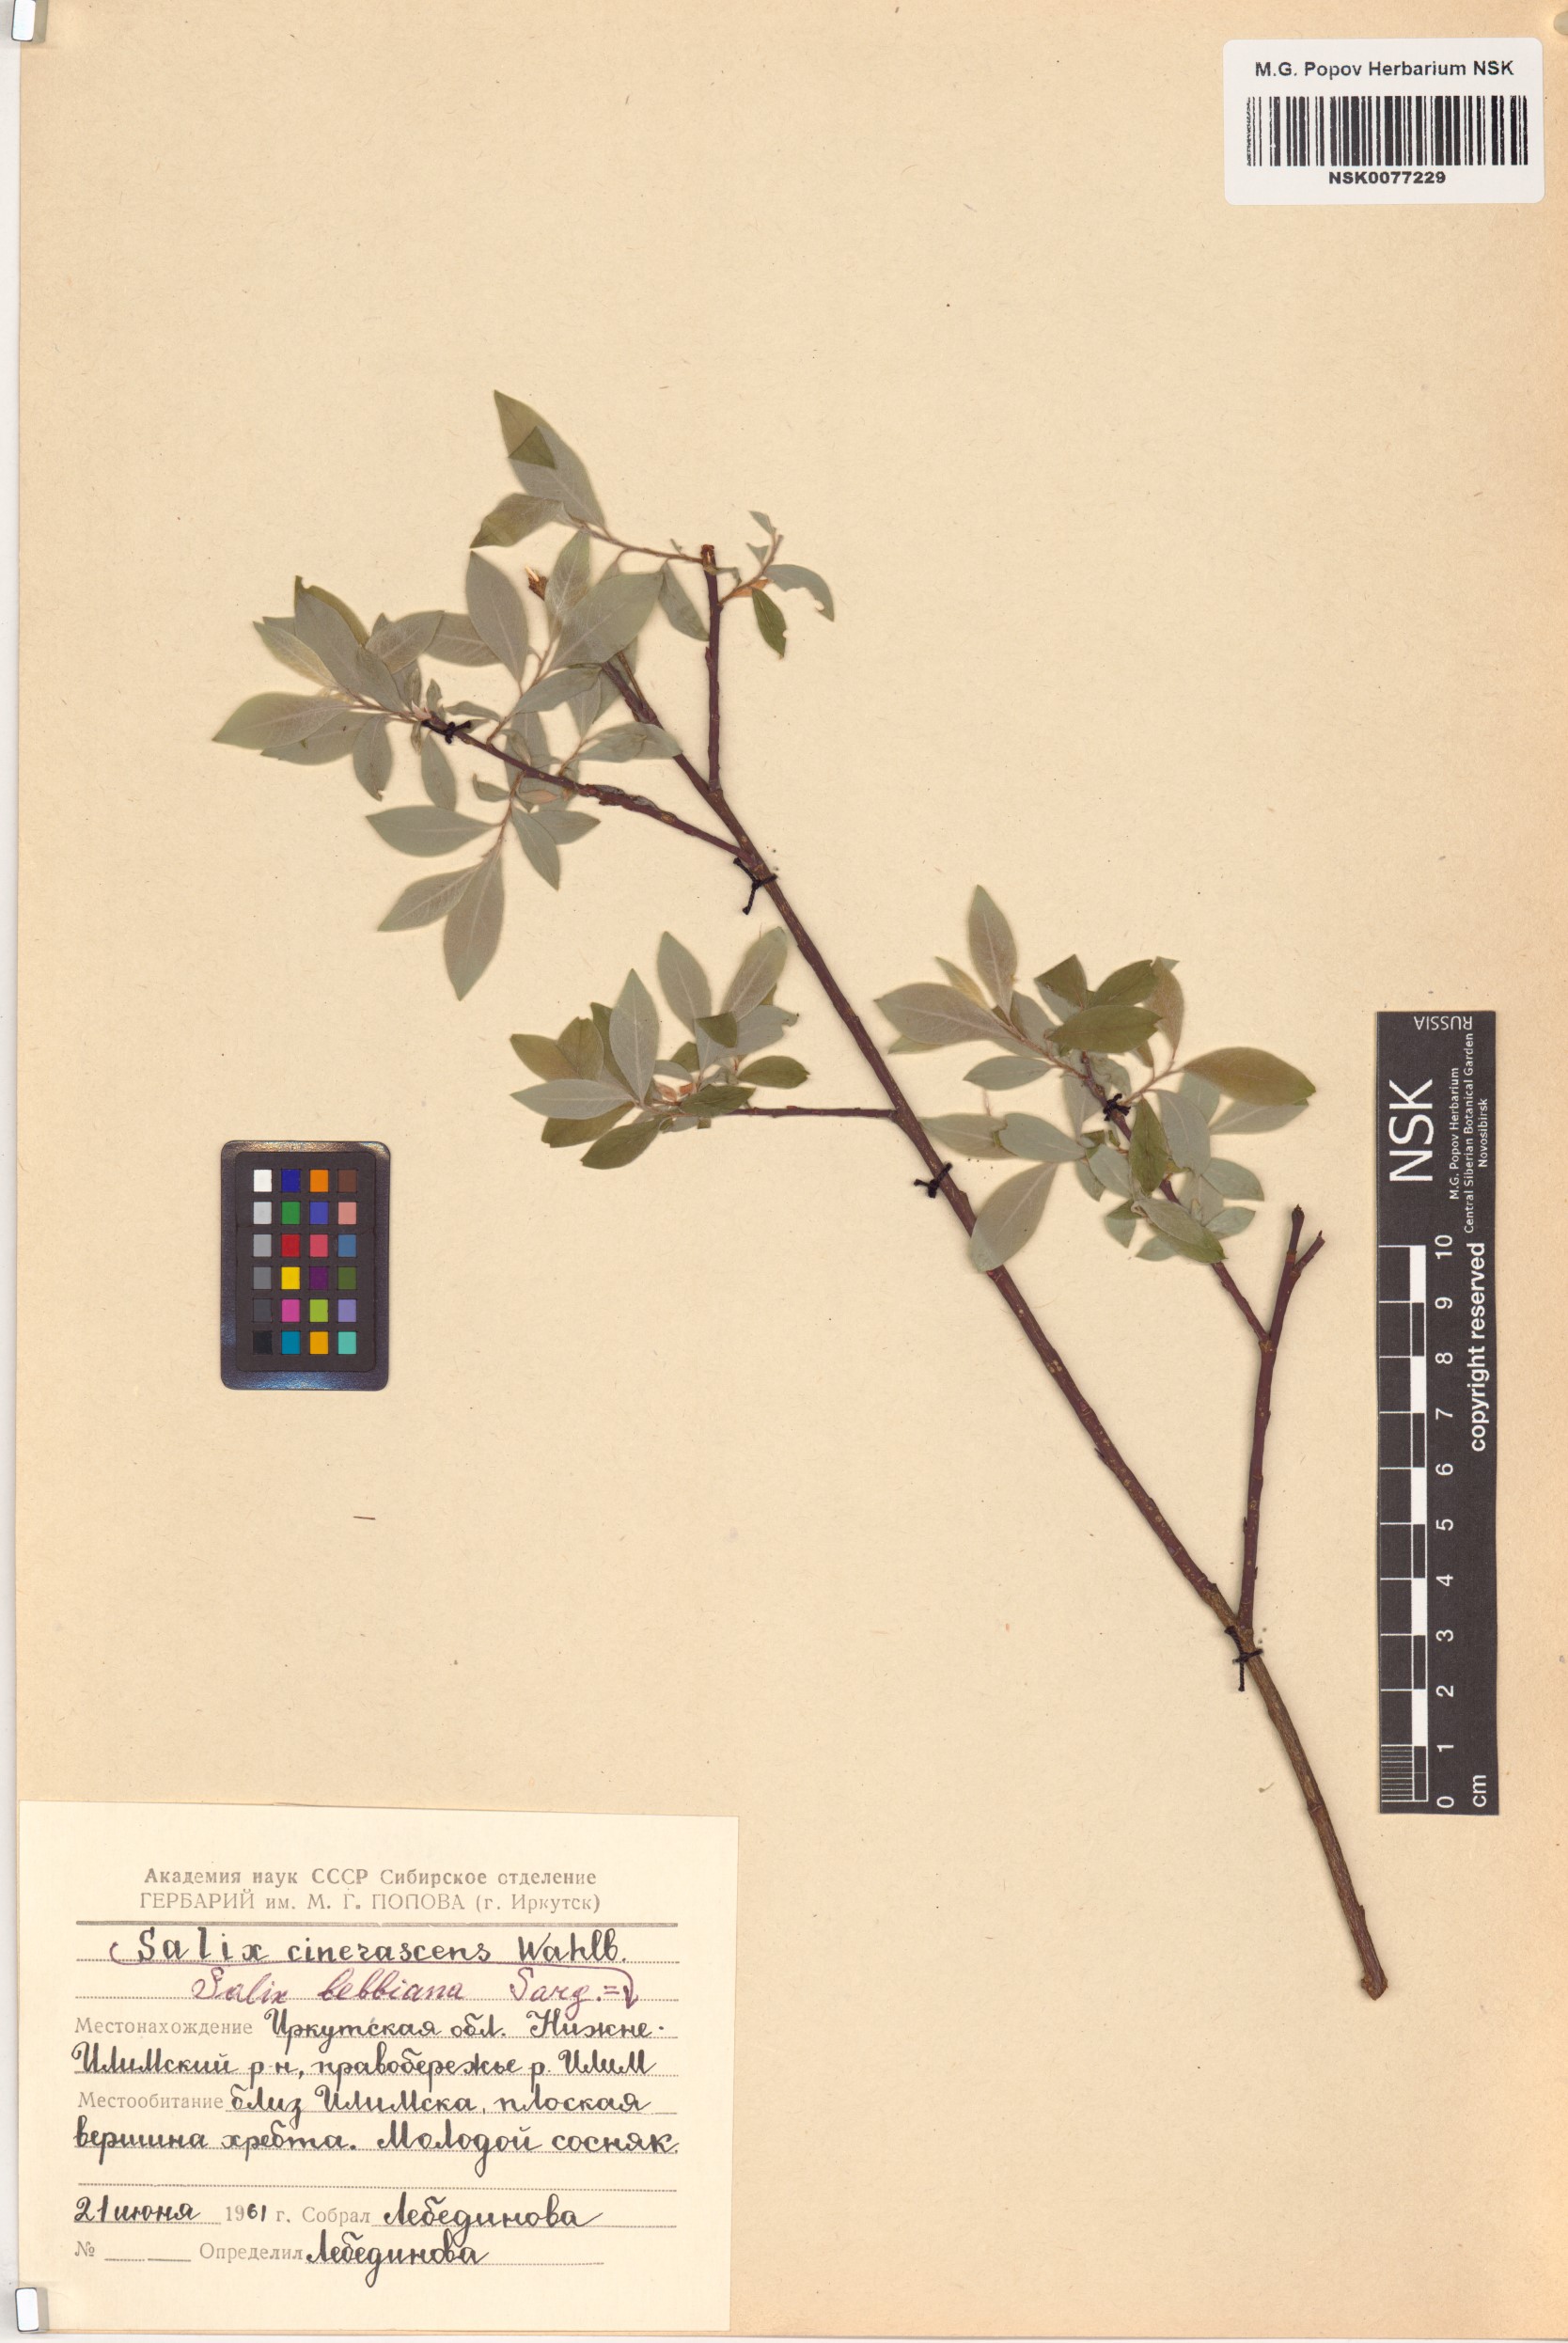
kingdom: Plantae
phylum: Tracheophyta
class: Magnoliopsida
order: Malpighiales
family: Salicaceae
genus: Salix
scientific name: Salix bebbiana
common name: Bebb's willow
